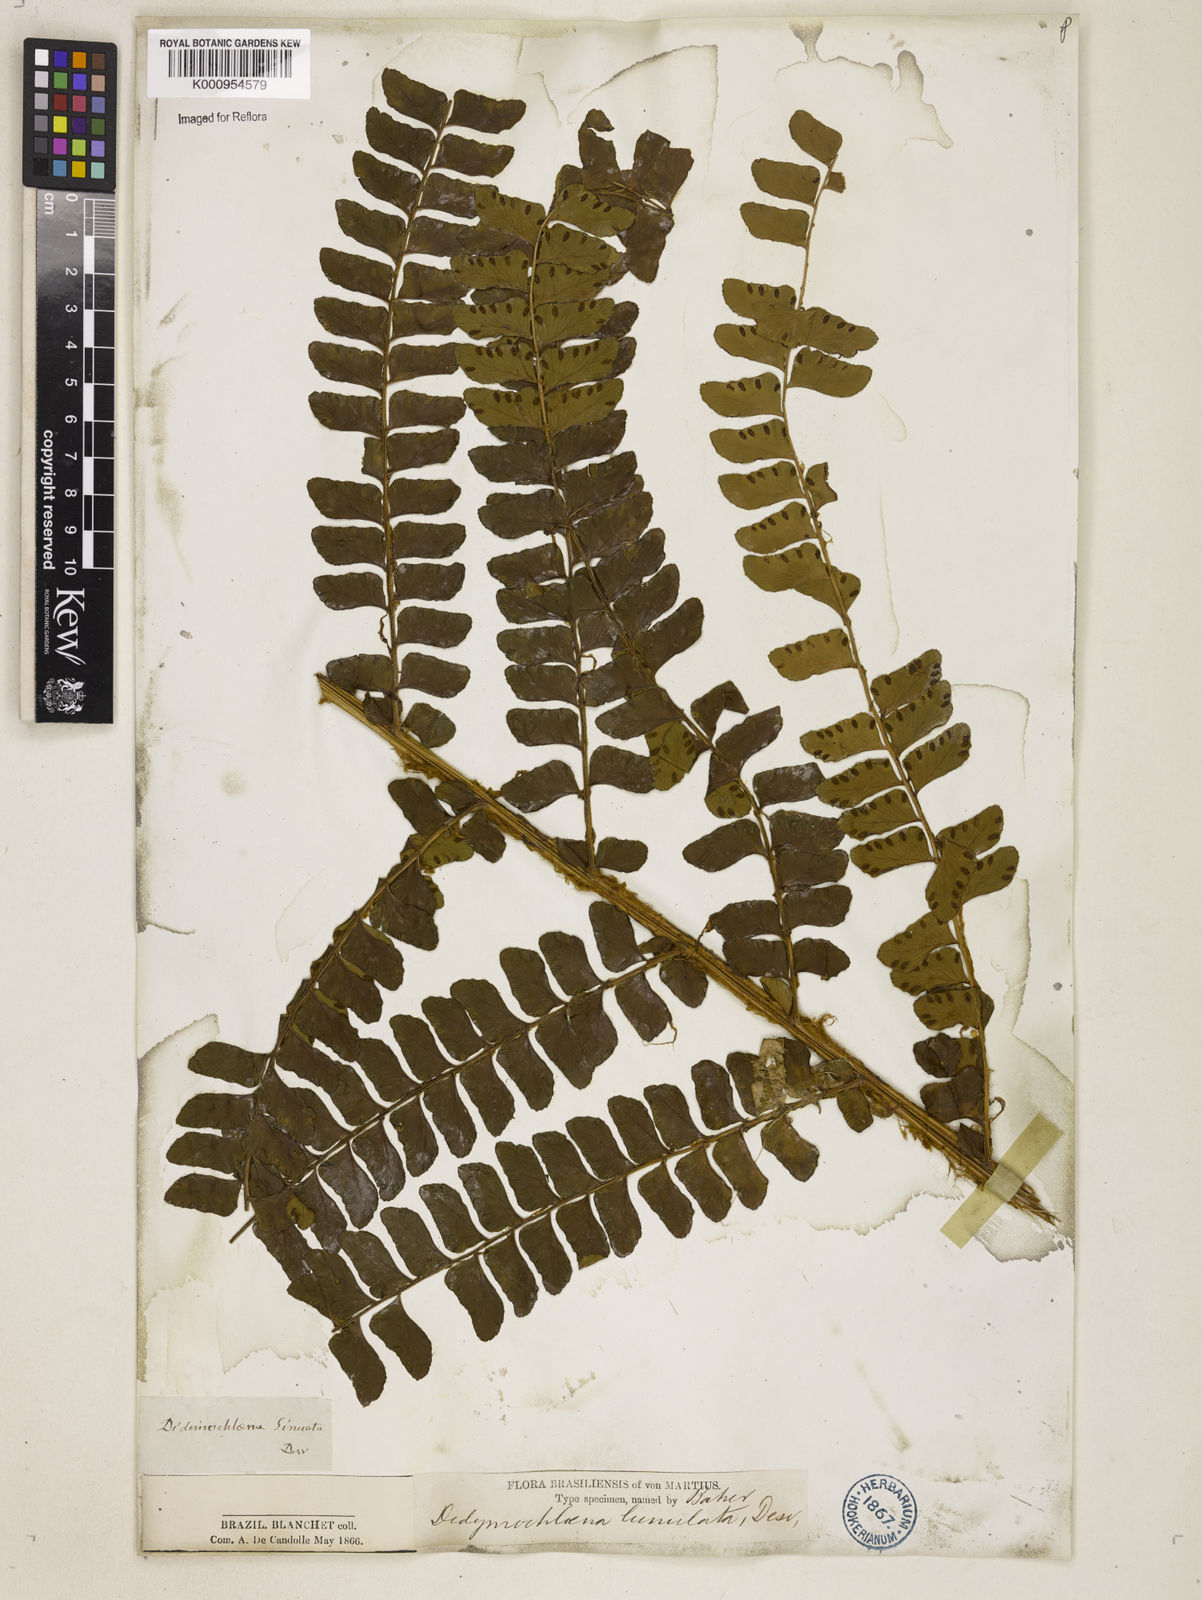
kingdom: Plantae
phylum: Tracheophyta
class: Polypodiopsida
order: Polypodiales
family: Didymochlaenaceae
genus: Didymochlaena
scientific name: Didymochlaena truncatula
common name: Mahogany fern
